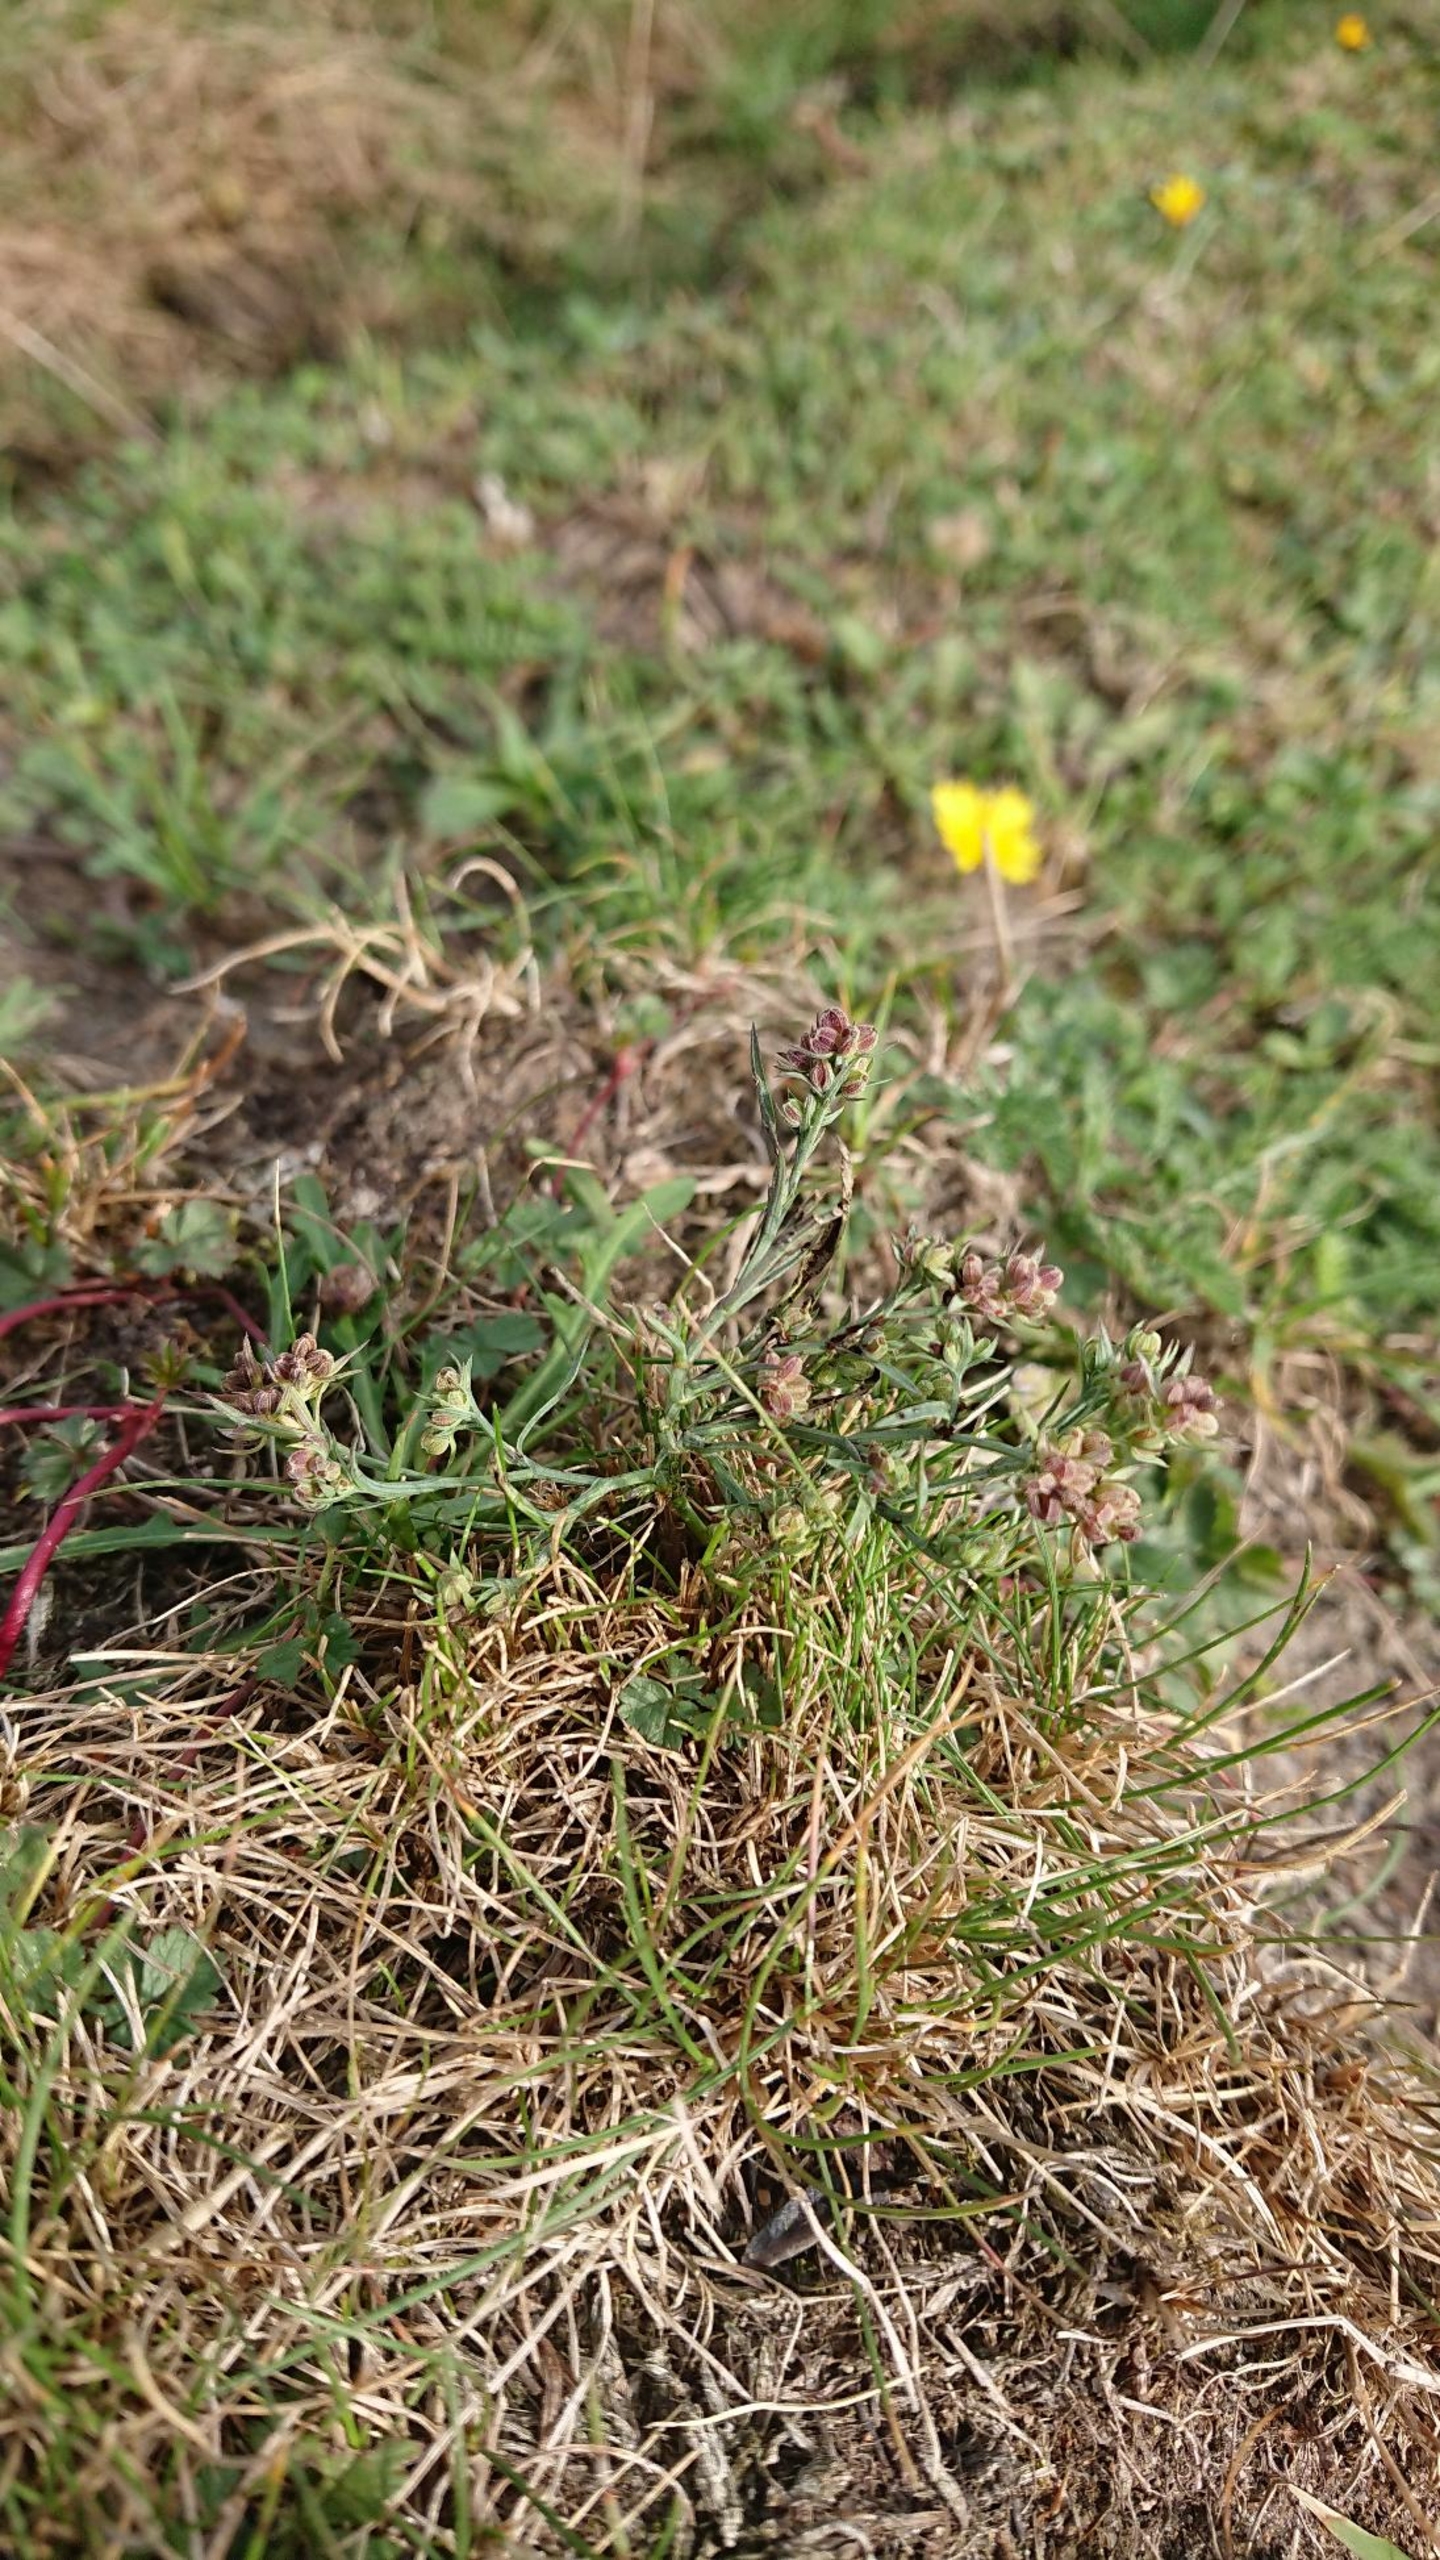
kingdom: Plantae
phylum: Tracheophyta
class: Magnoliopsida
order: Apiales
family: Apiaceae
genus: Bupleurum
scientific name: Bupleurum tenuissimum
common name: Smalbladet hareøre
